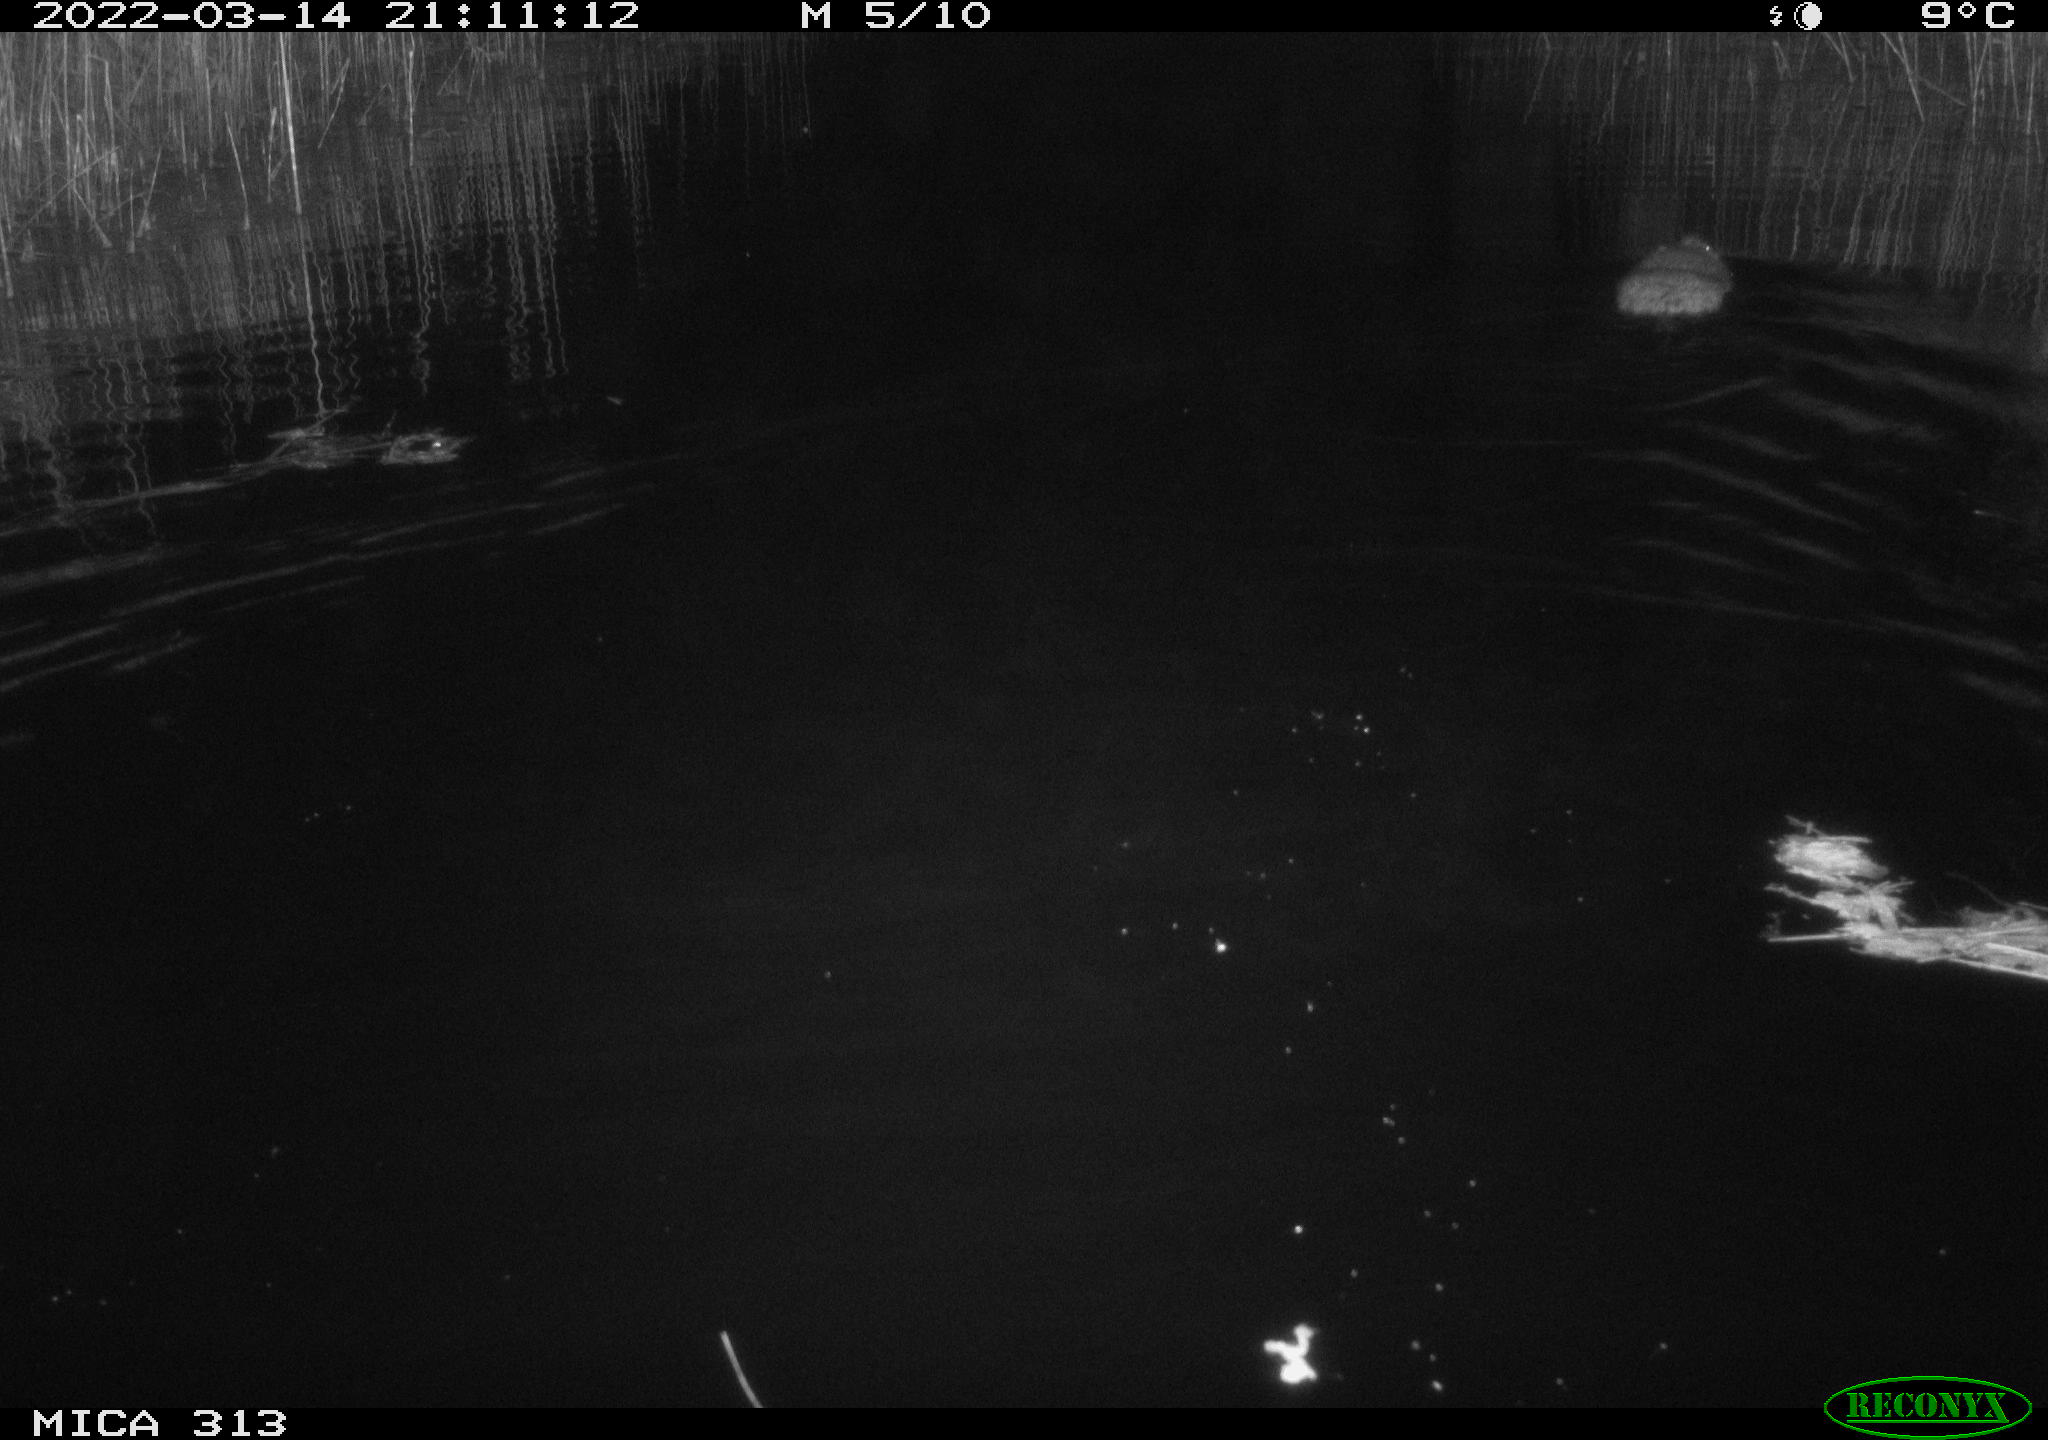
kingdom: Animalia
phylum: Chordata
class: Mammalia
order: Rodentia
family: Cricetidae
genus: Ondatra
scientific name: Ondatra zibethicus
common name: Muskrat
